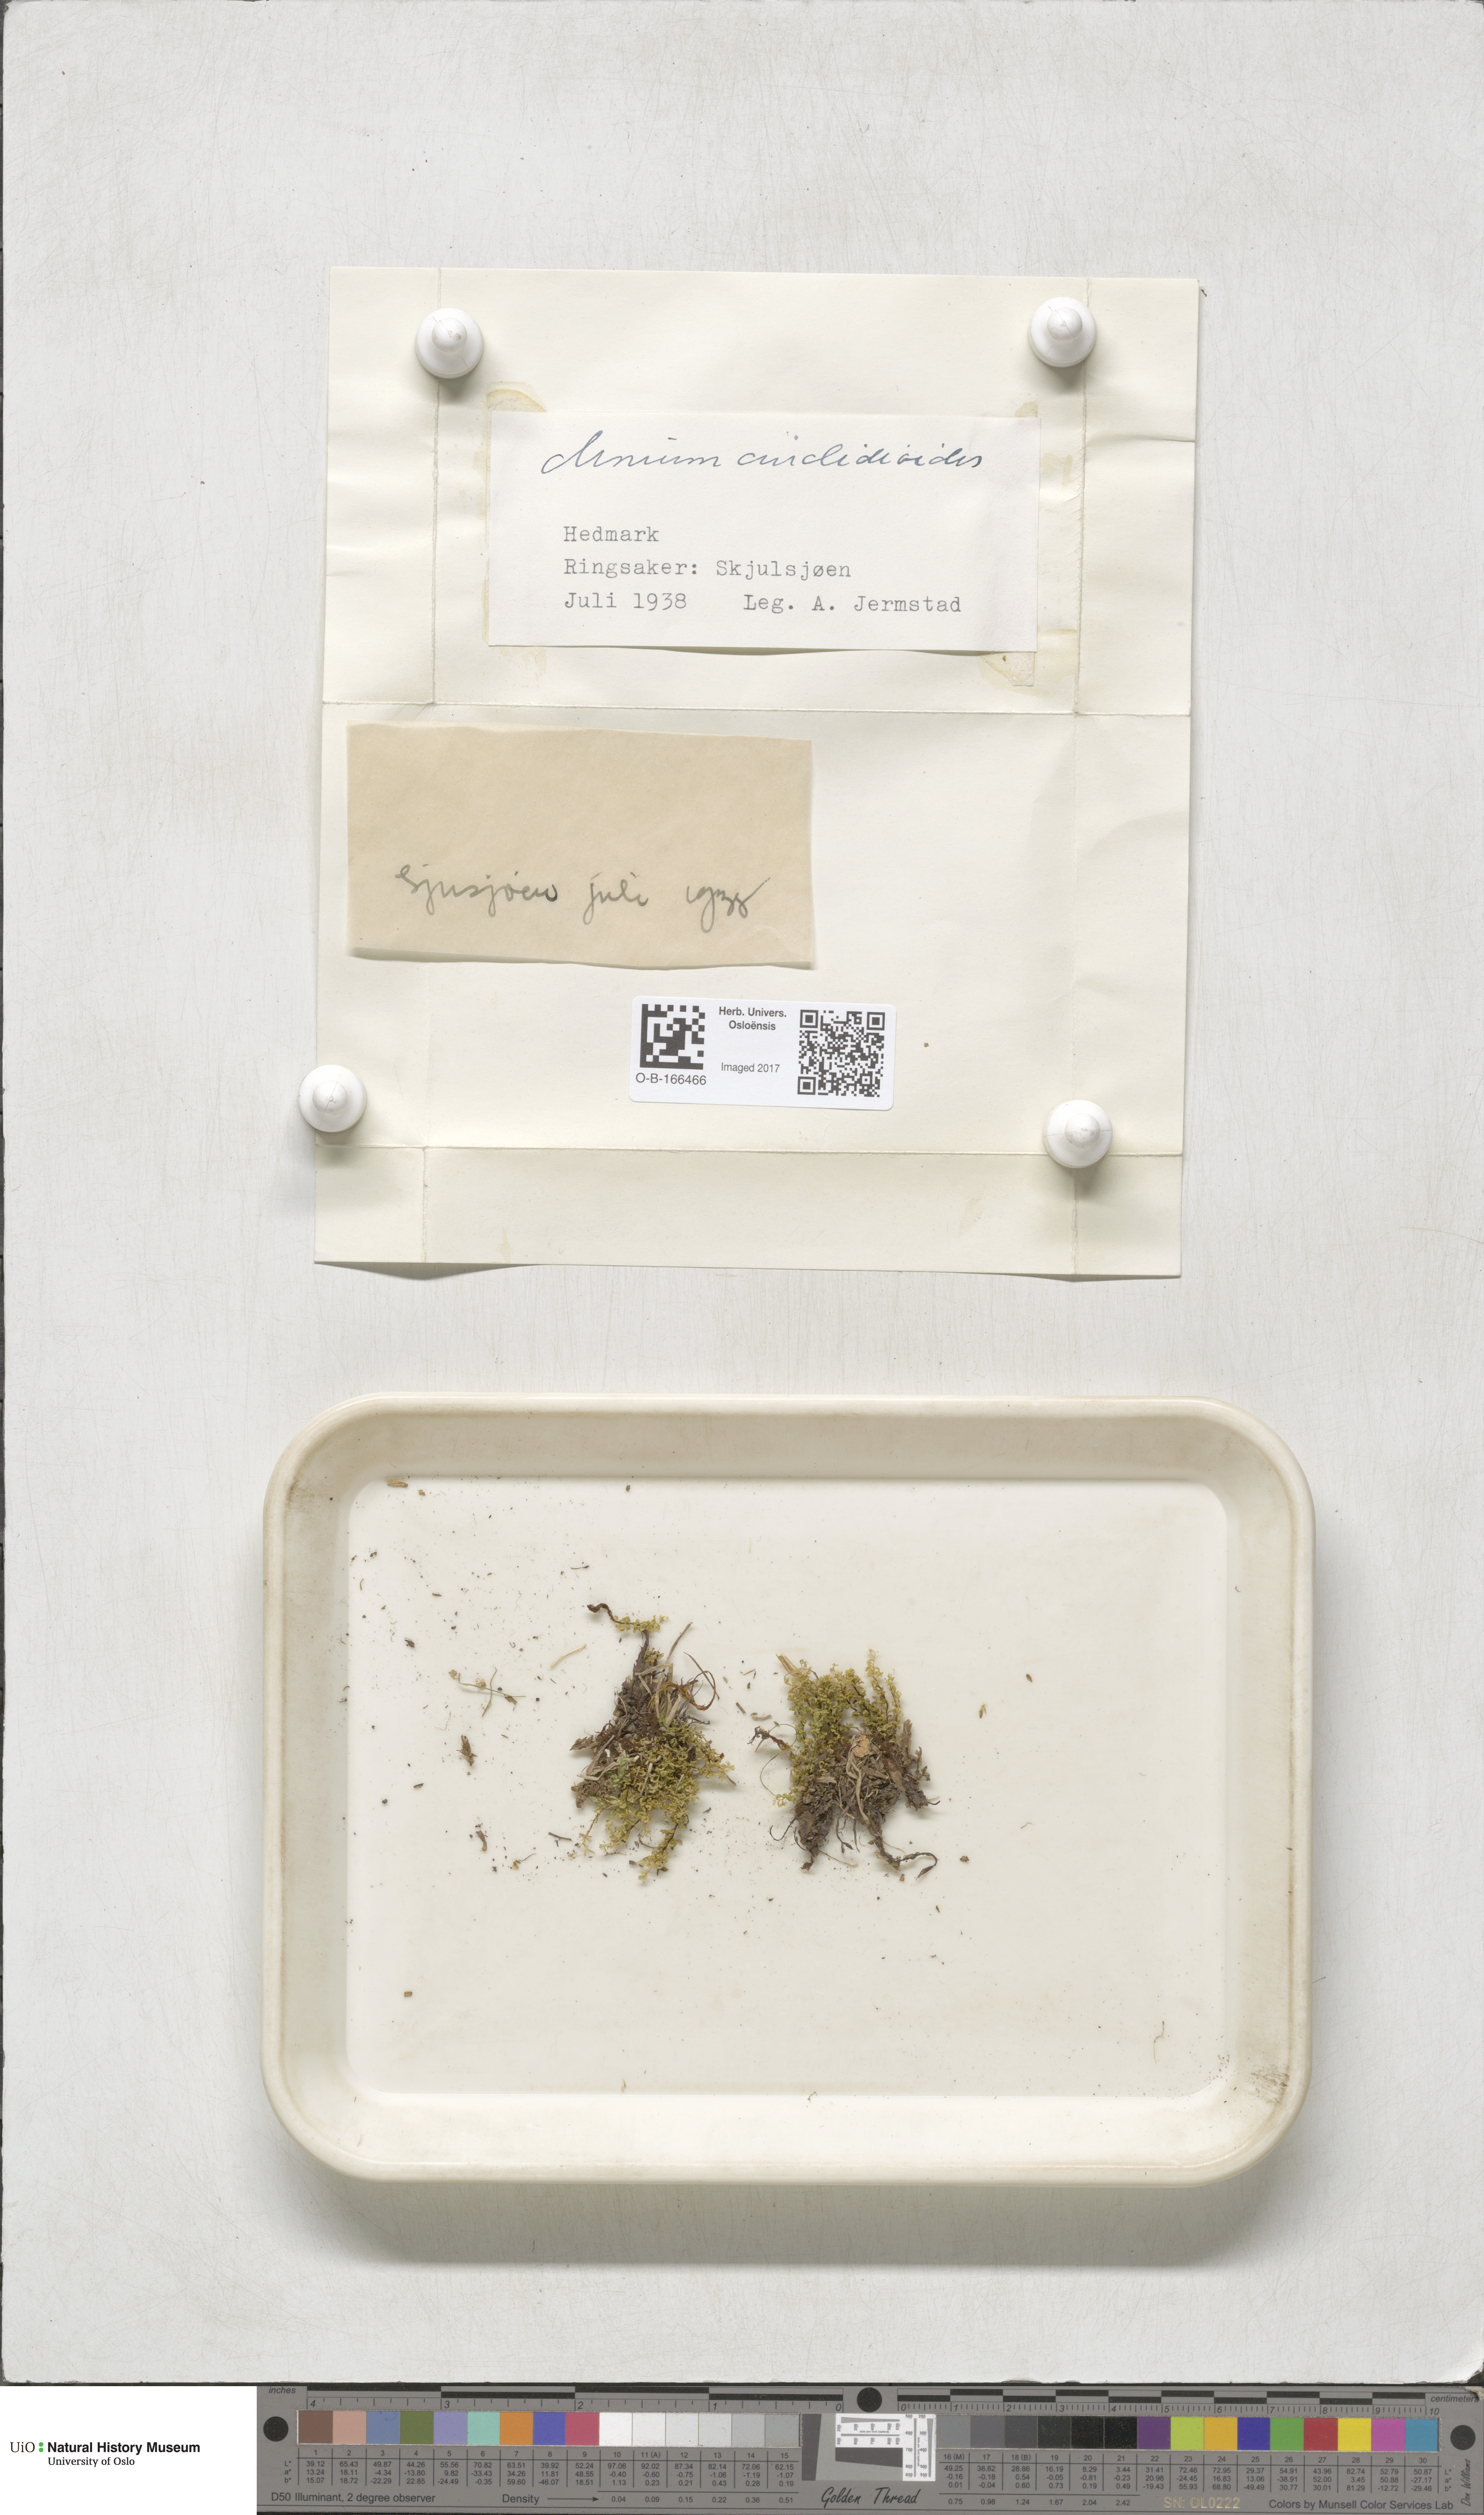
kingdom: Plantae
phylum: Bryophyta
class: Bryopsida
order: Bryales
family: Mniaceae
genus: Pseudobryum
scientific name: Pseudobryum cinclidioides
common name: River thyme moss
